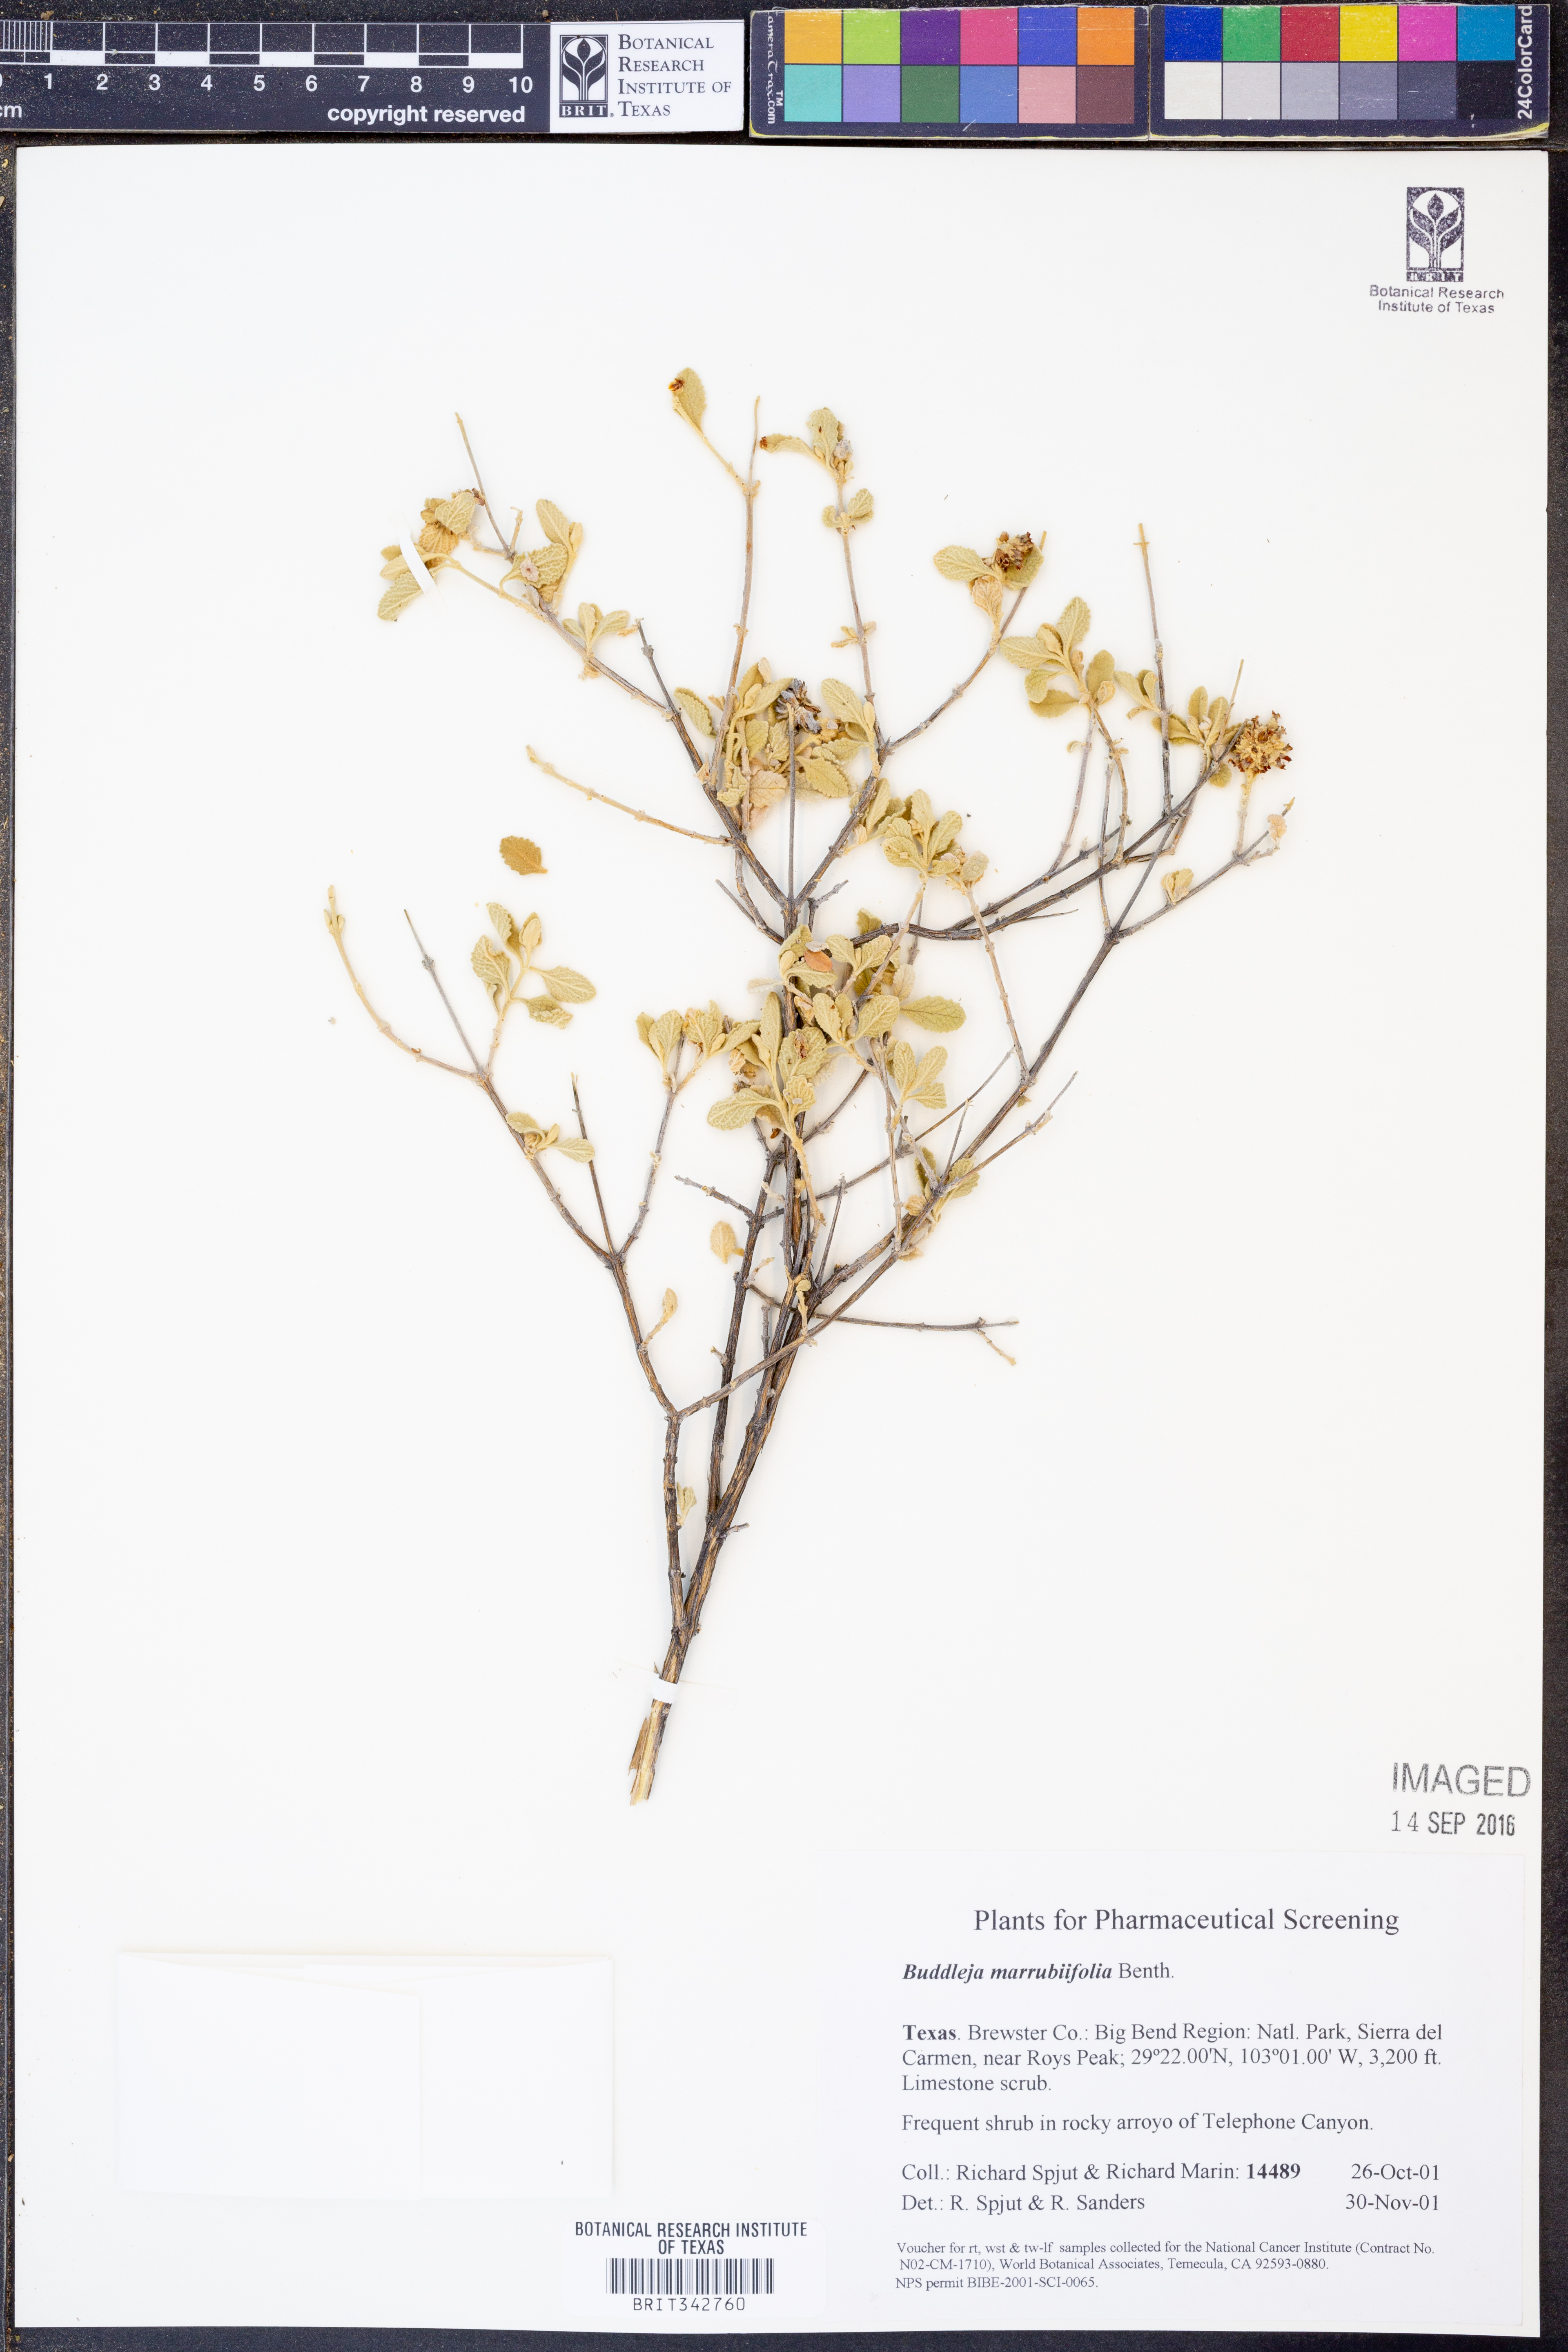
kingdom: Plantae
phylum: Tracheophyta
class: Magnoliopsida
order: Lamiales
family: Scrophulariaceae
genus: Buddleja
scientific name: Buddleja marrubiifolia
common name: Woolly butterfly-bush
